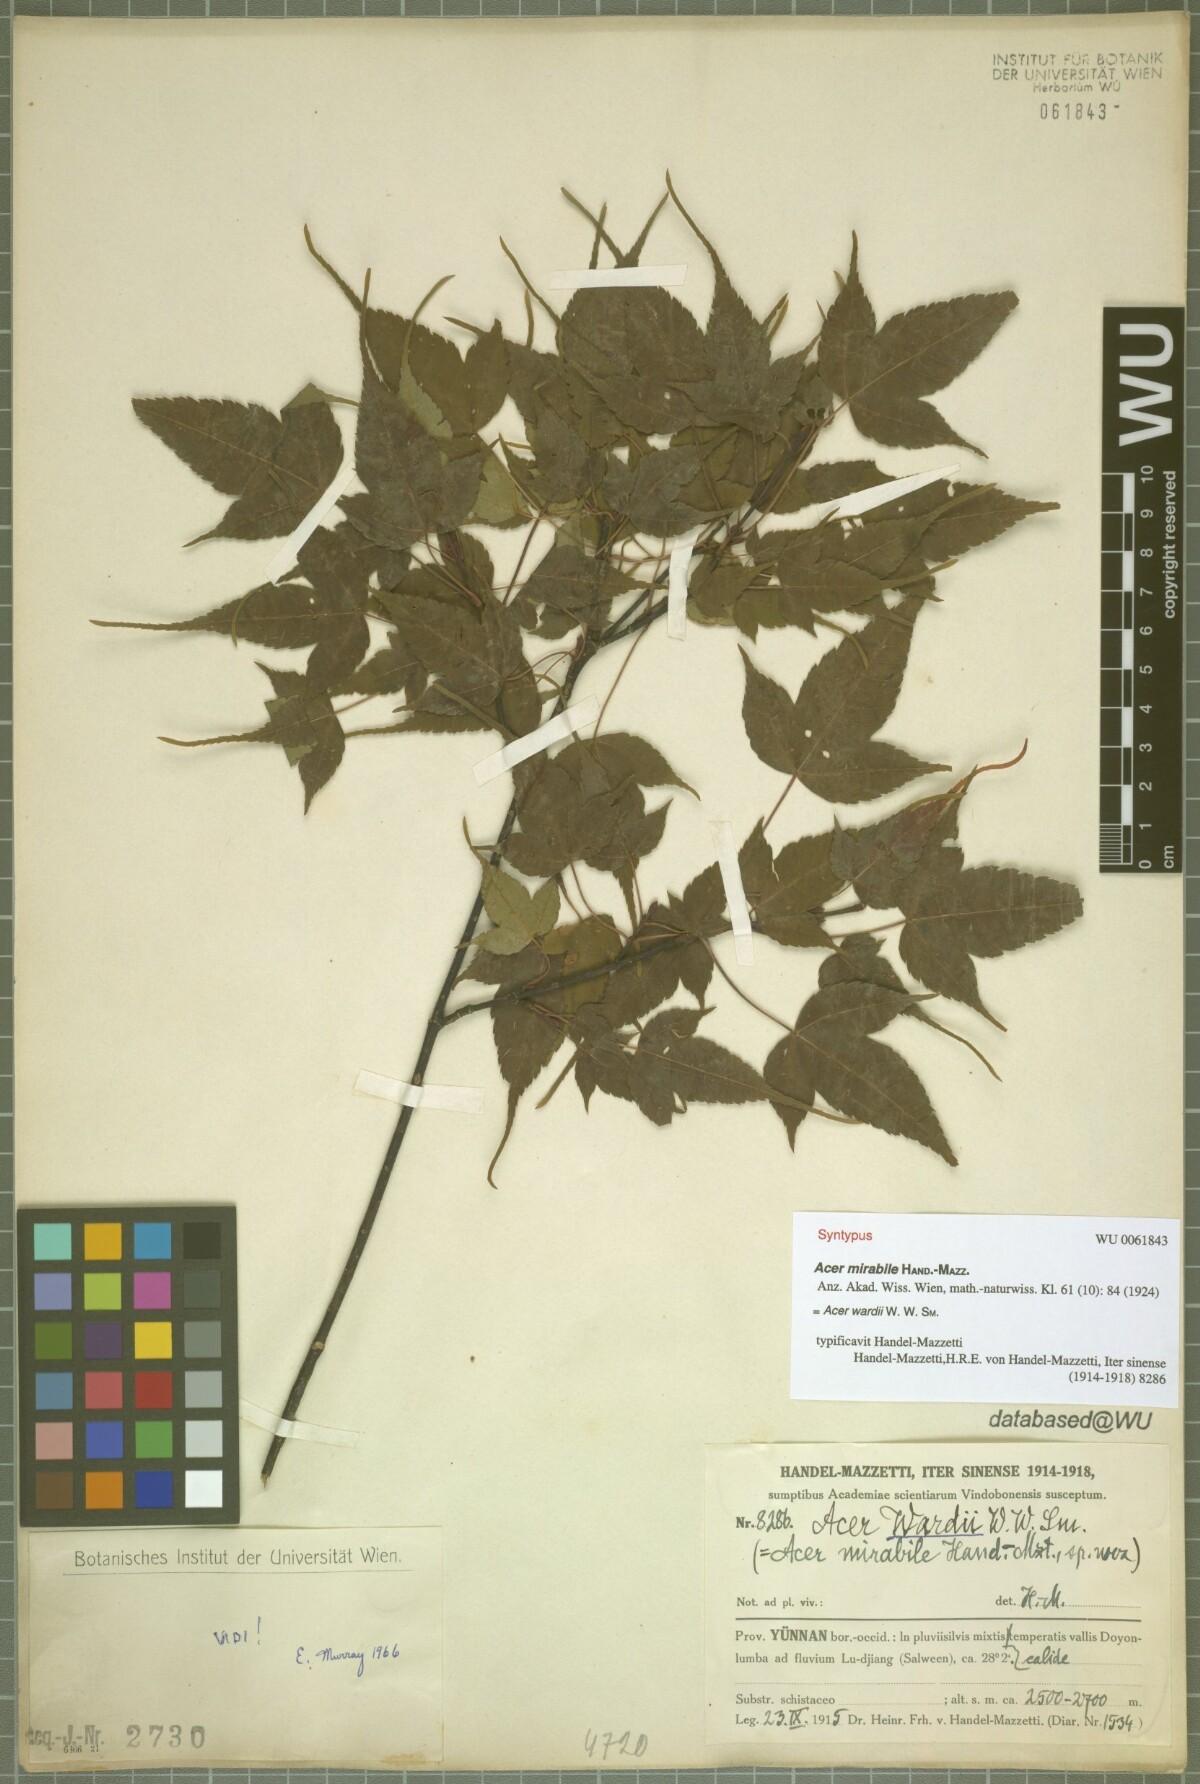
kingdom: Plantae
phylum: Tracheophyta
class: Magnoliopsida
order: Sapindales
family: Sapindaceae
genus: Acer
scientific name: Acer wardii
